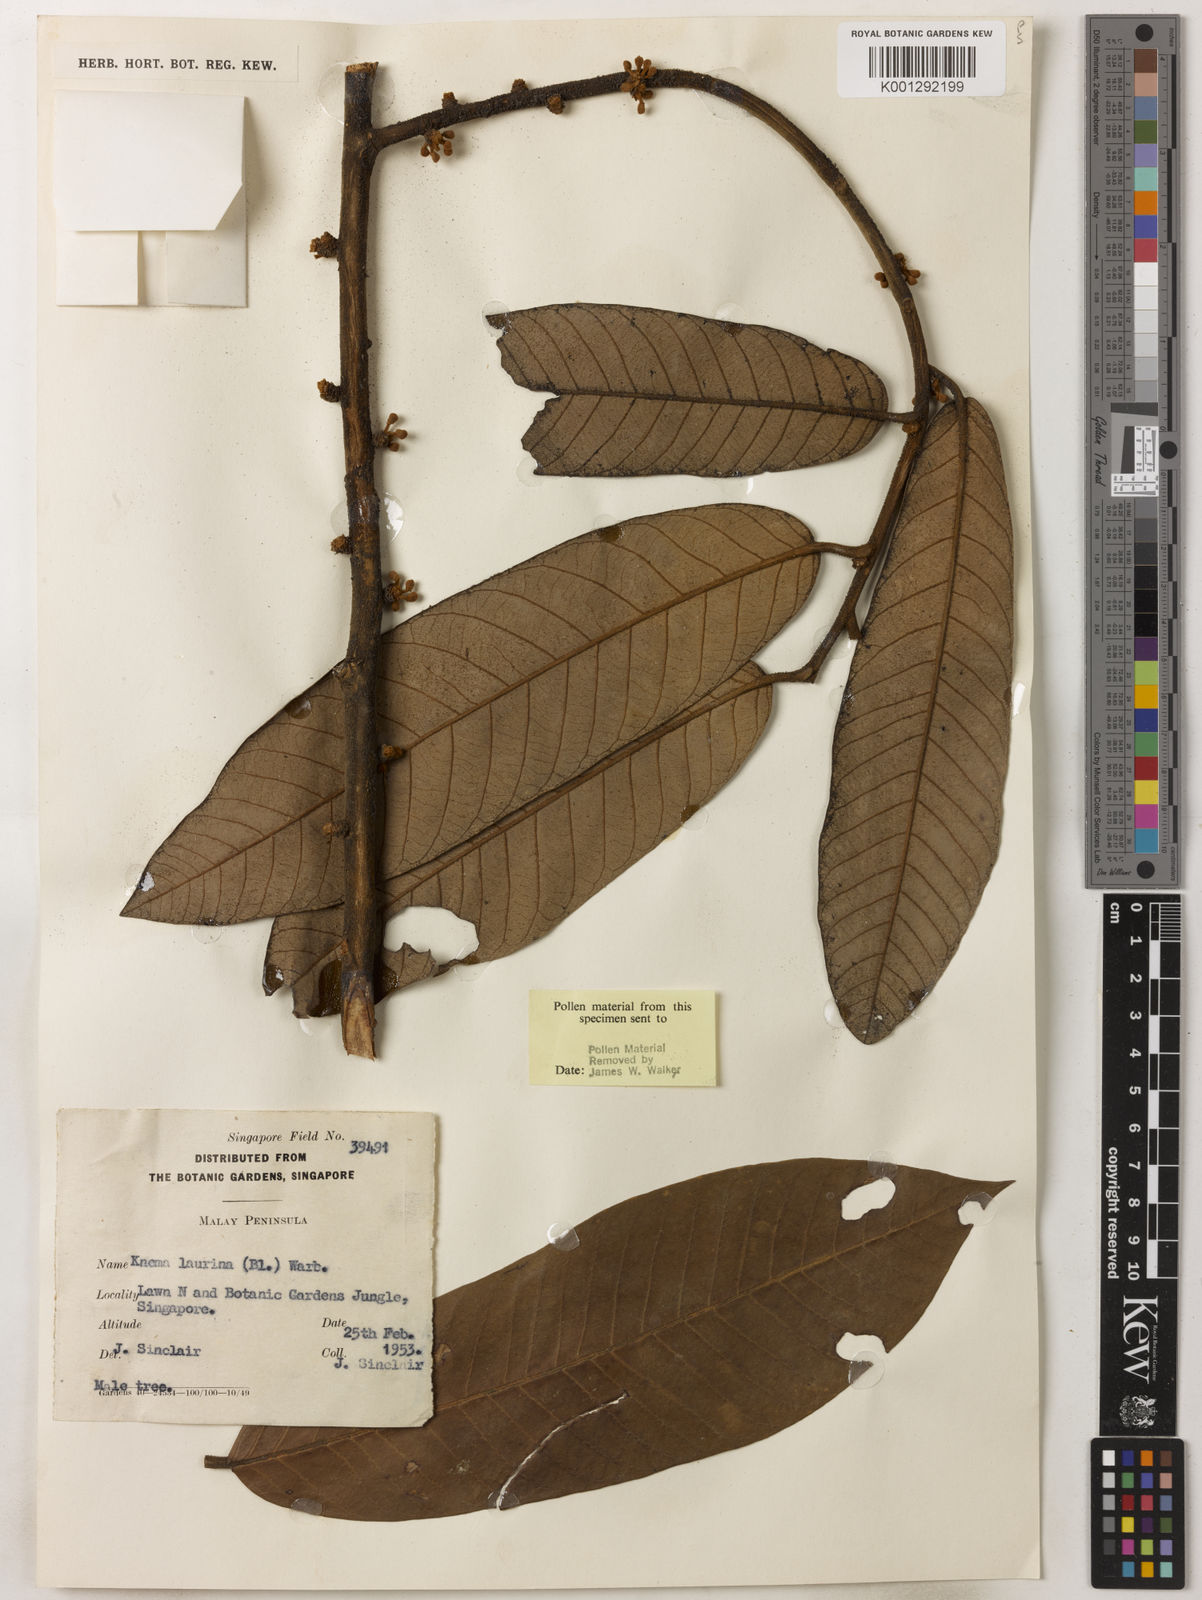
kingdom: Plantae
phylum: Tracheophyta
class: Magnoliopsida
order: Magnoliales
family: Myristicaceae
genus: Knema
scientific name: Knema laurina
